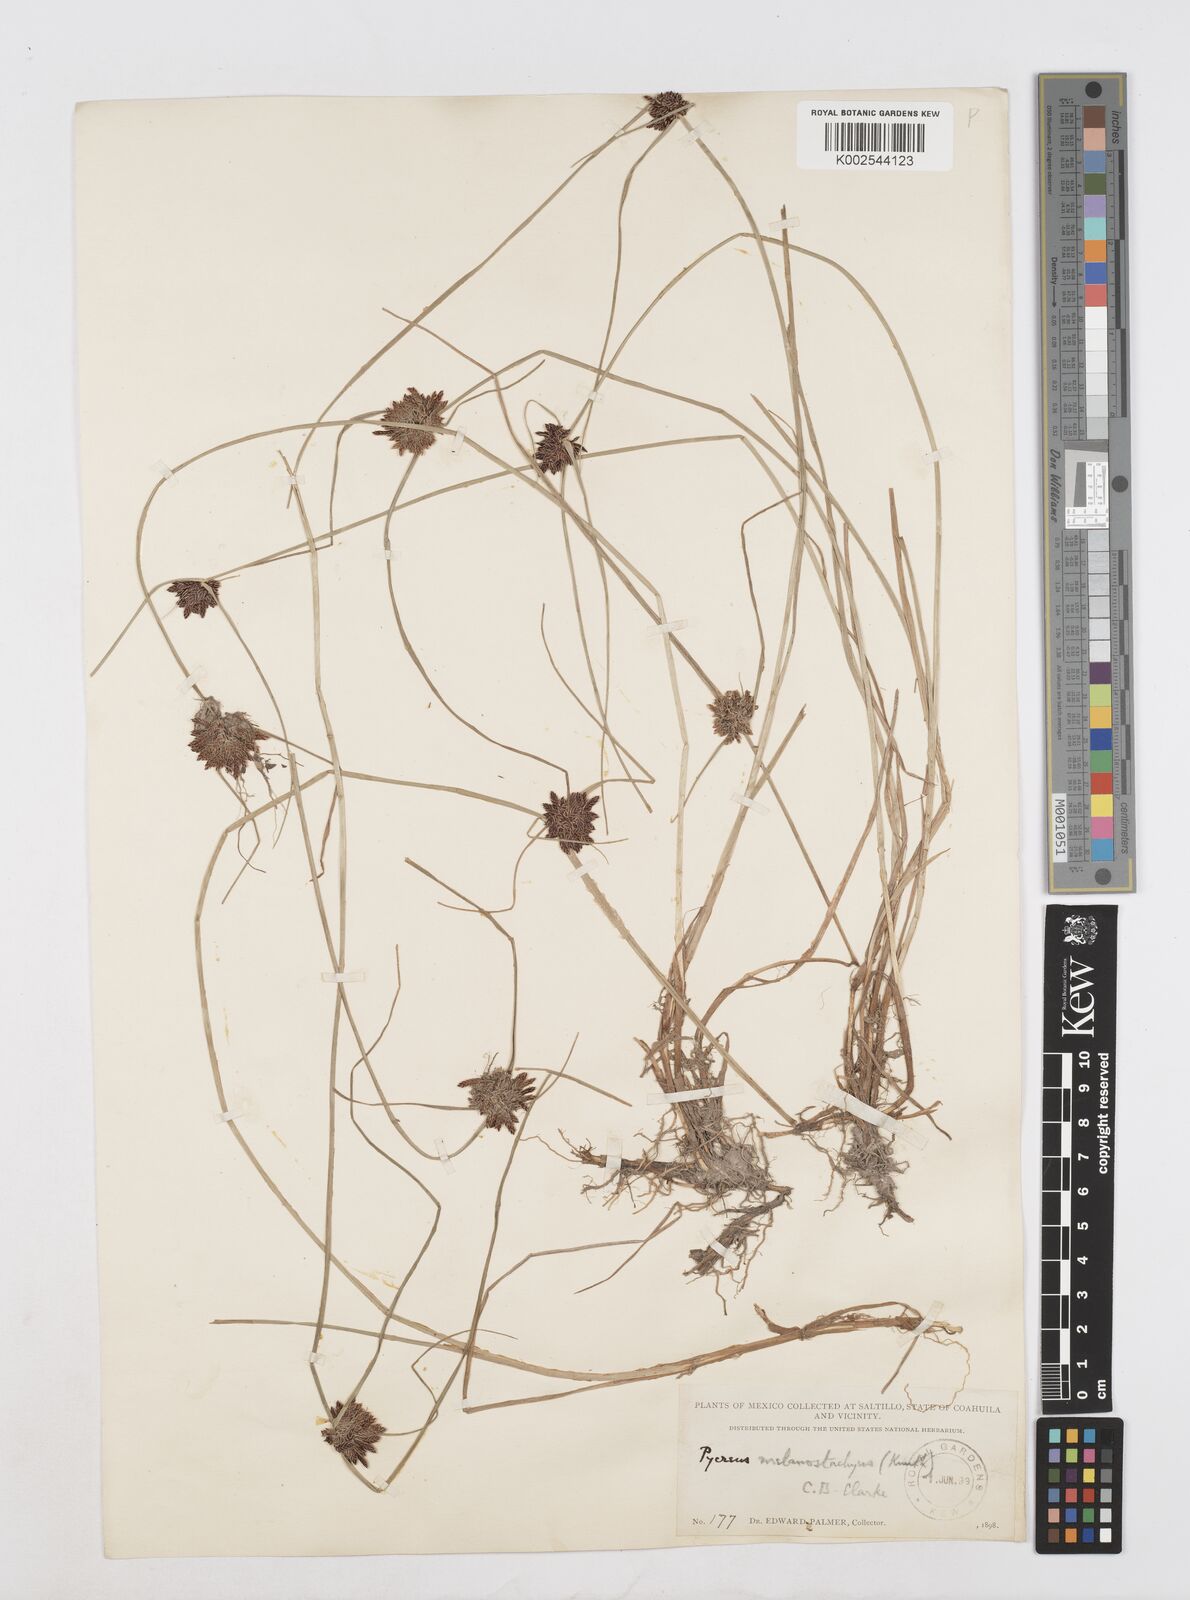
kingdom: Plantae
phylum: Tracheophyta
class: Liliopsida
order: Poales
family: Cyperaceae
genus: Cyperus
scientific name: Cyperus melanostachyus
